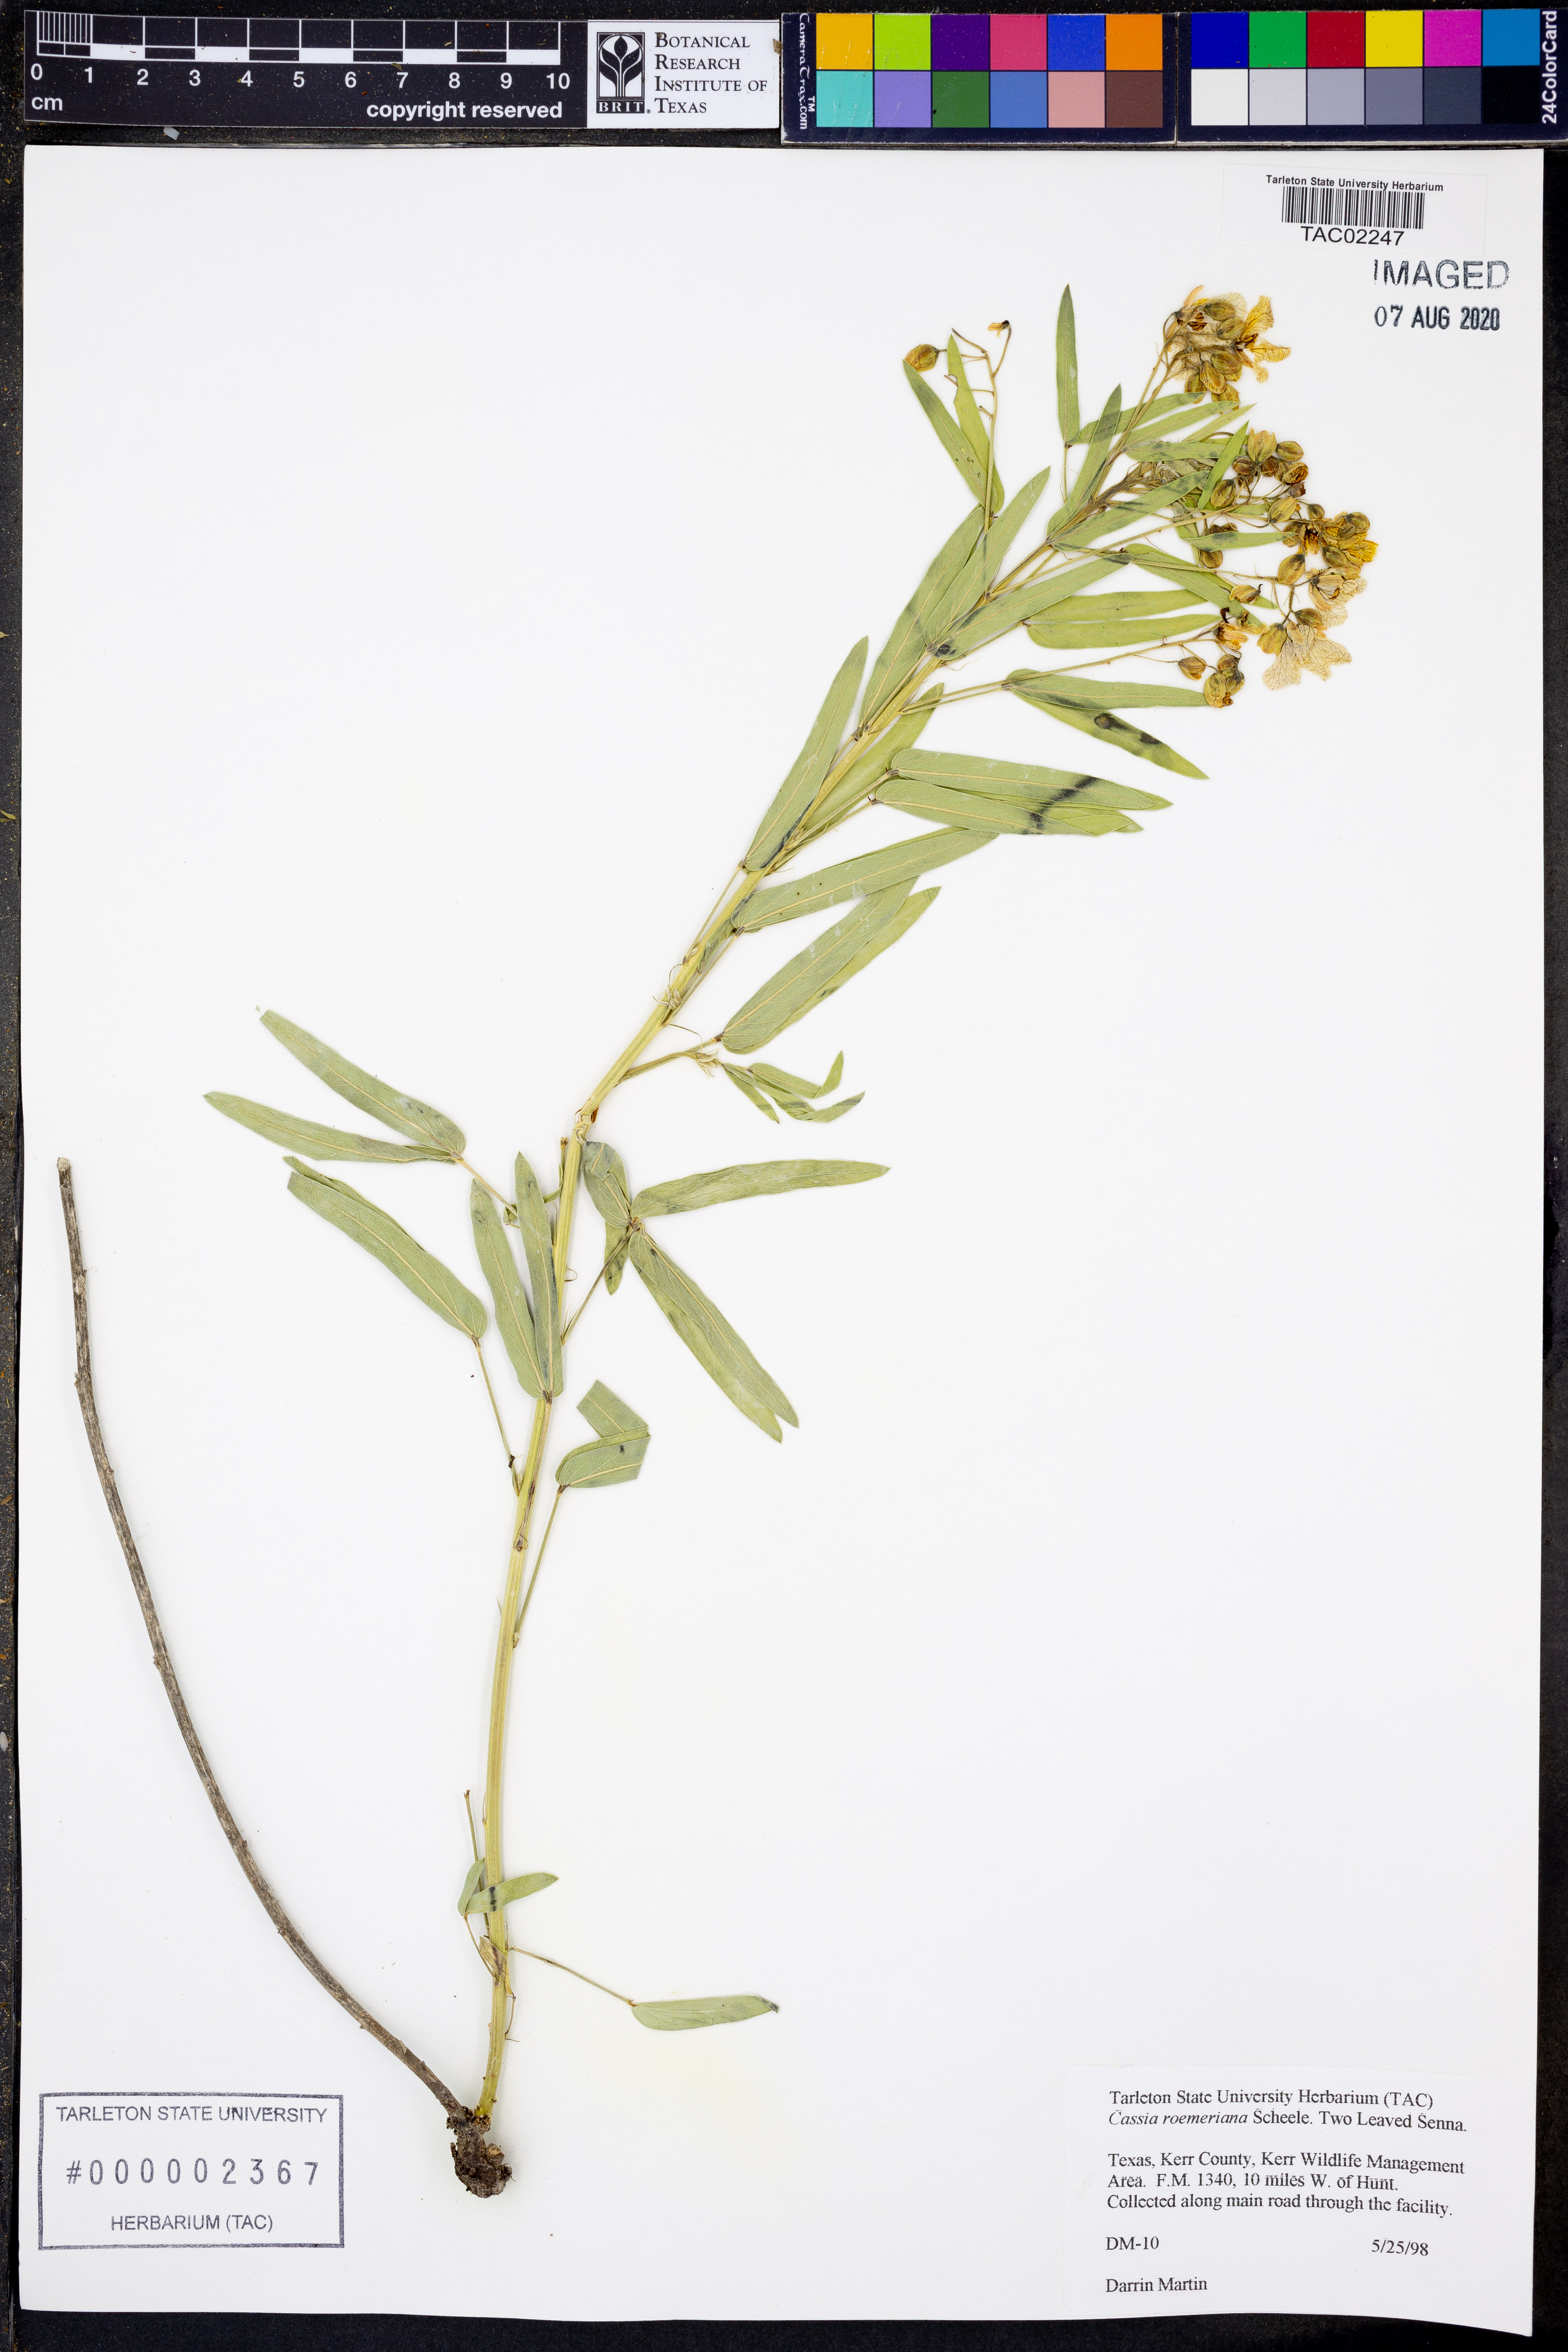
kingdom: Plantae
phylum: Tracheophyta
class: Magnoliopsida
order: Fabales
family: Fabaceae
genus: Senna
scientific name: Senna roemeriana
